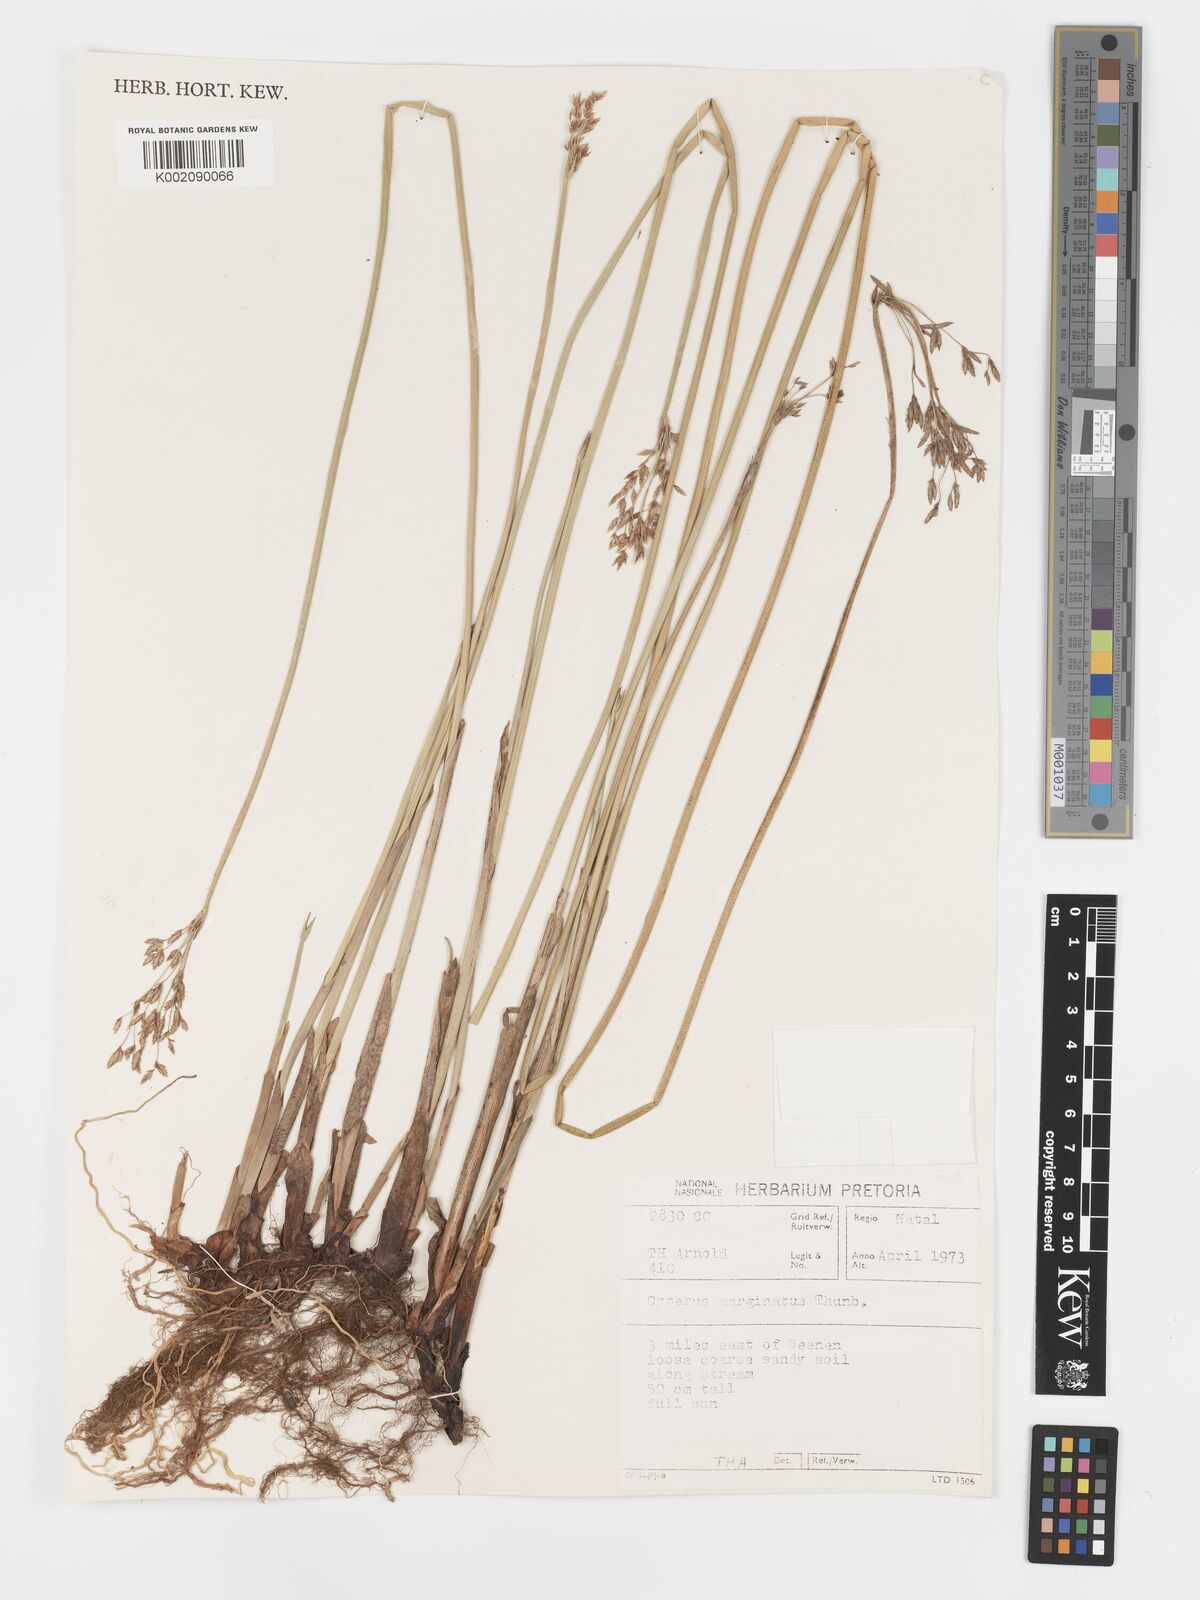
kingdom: Plantae
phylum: Tracheophyta
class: Liliopsida
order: Poales
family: Cyperaceae
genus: Cyperus
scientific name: Cyperus marginatus
